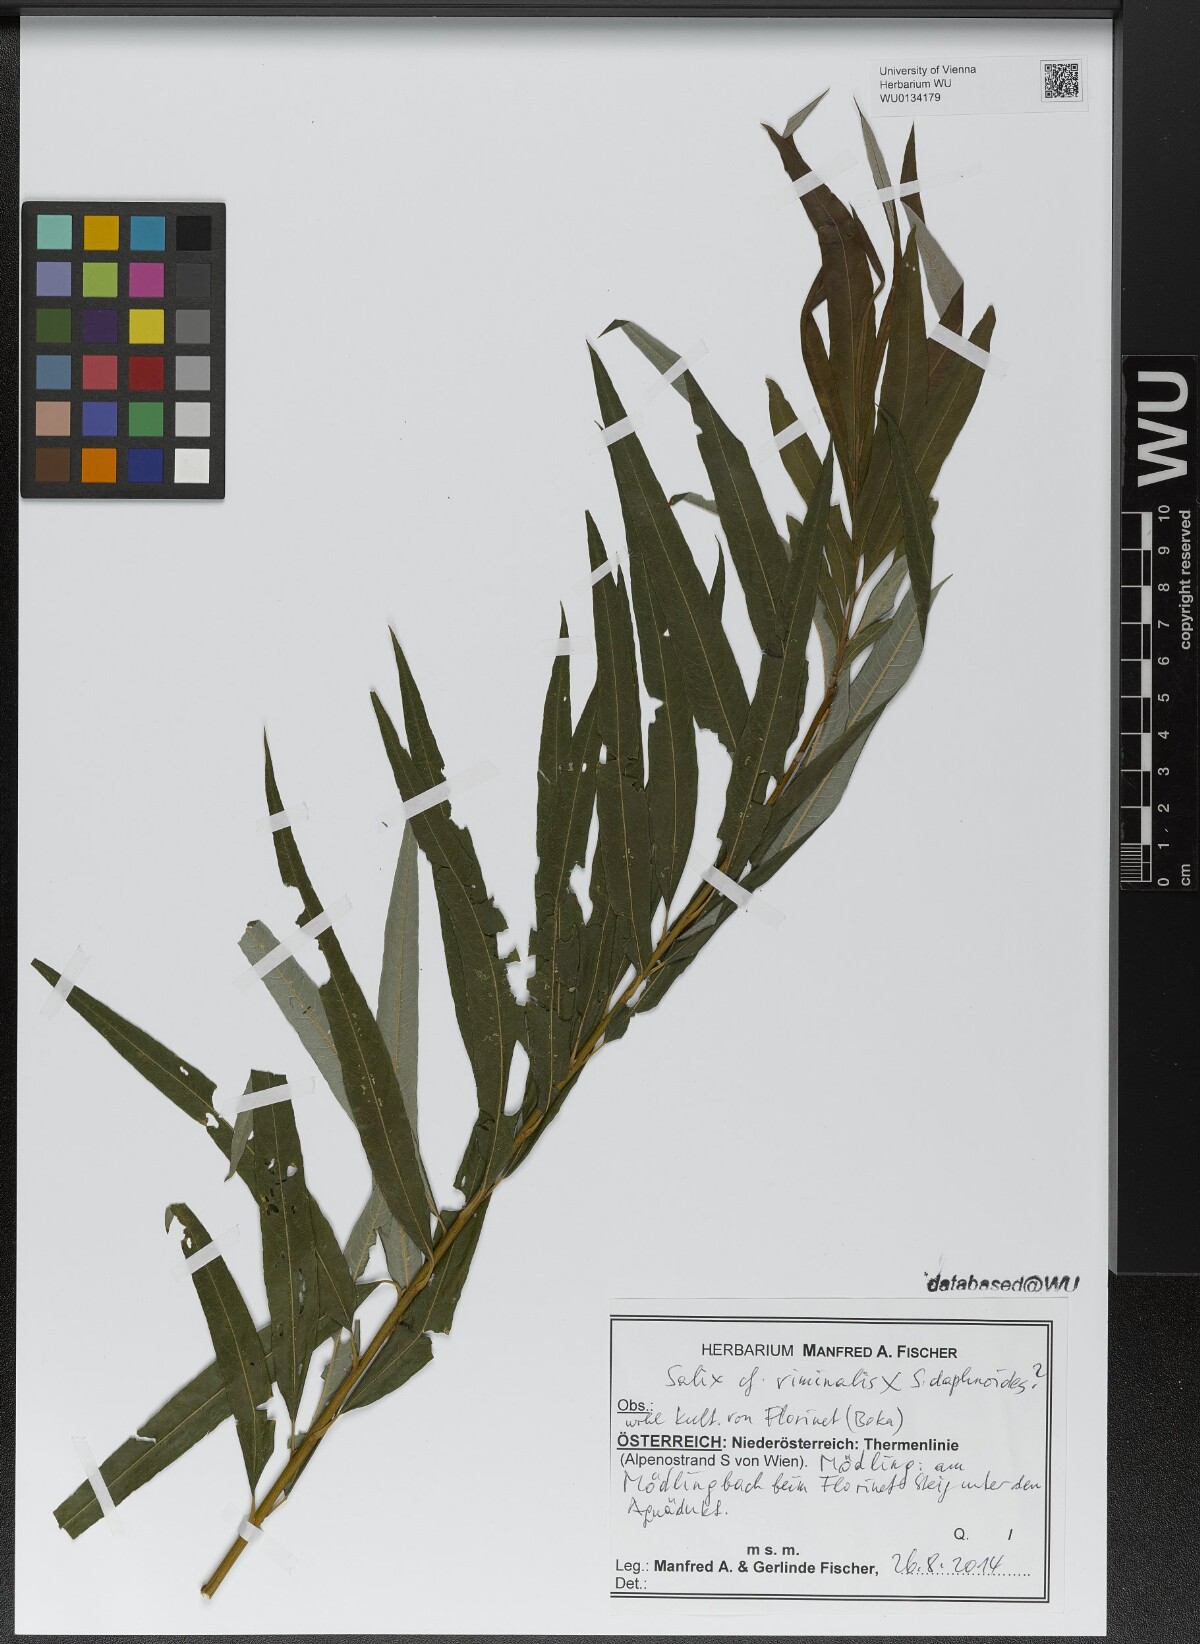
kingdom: Plantae
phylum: Tracheophyta
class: Magnoliopsida
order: Malpighiales
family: Salicaceae
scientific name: Salicaceae
